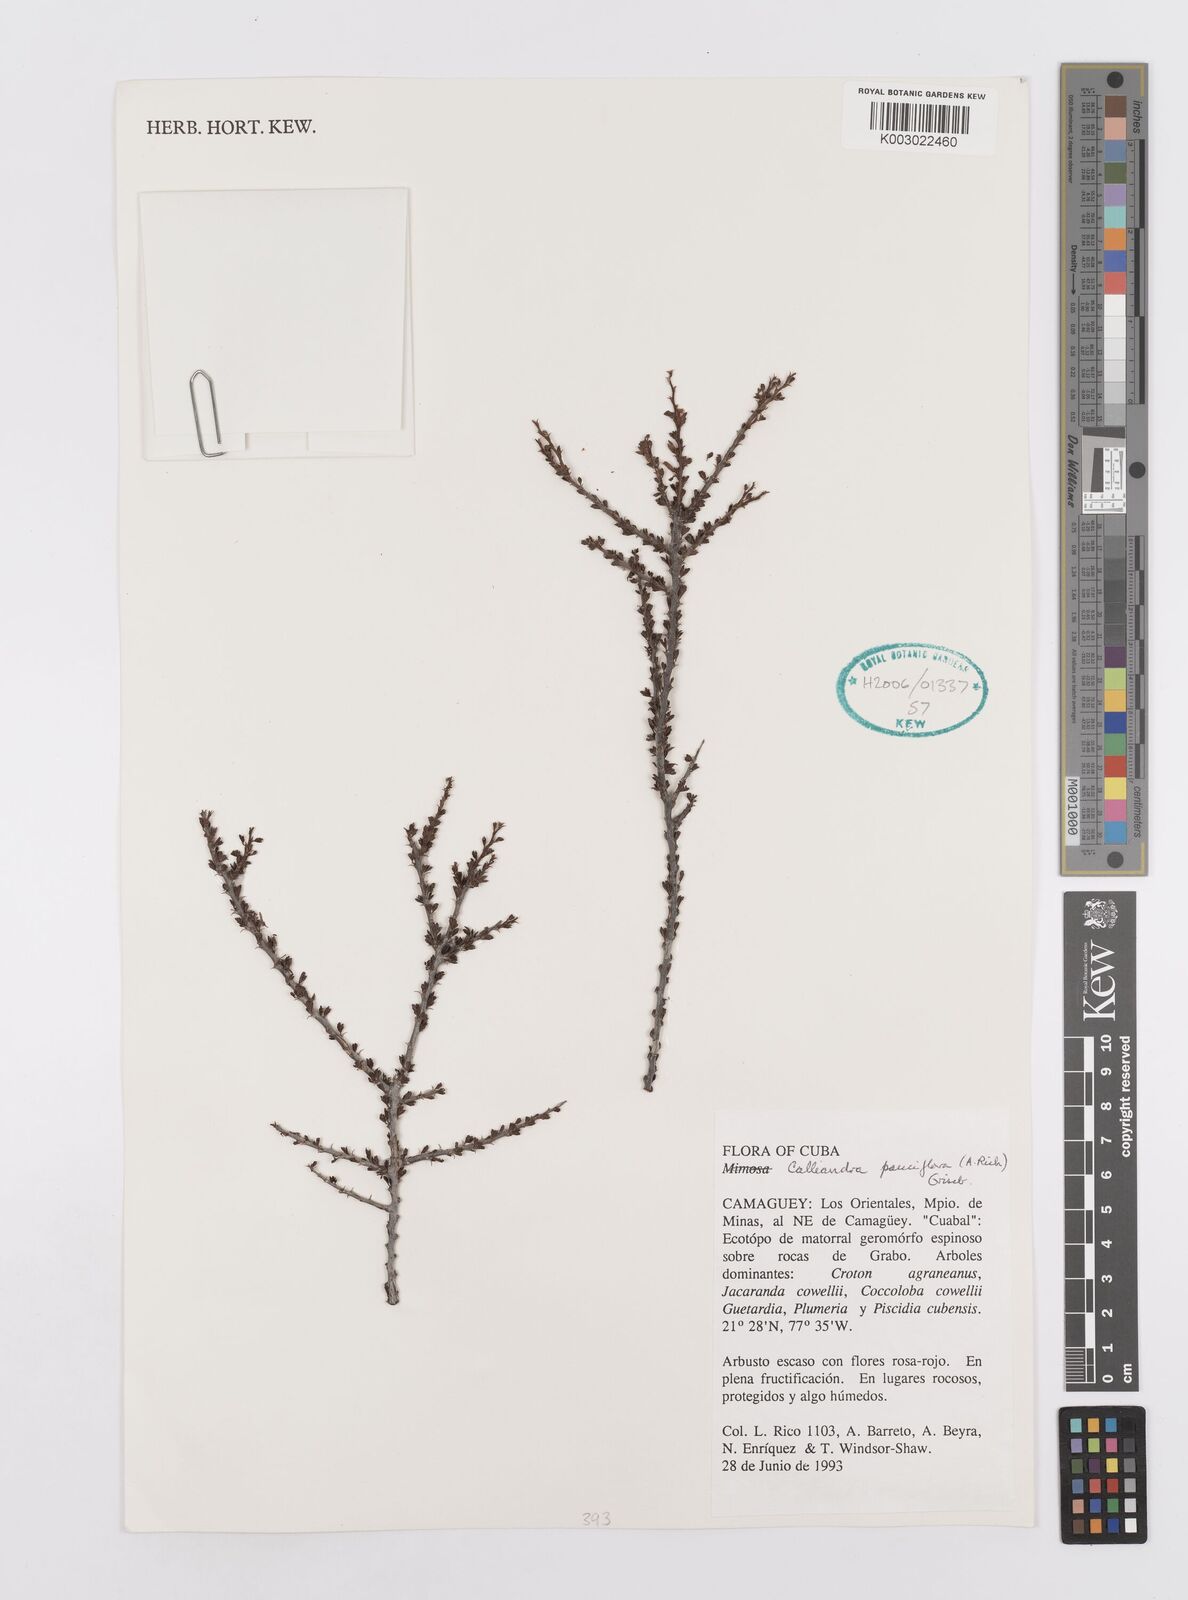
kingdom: Plantae
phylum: Tracheophyta
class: Magnoliopsida
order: Fabales
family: Fabaceae
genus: Calliandra
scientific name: Calliandra pauciflora
